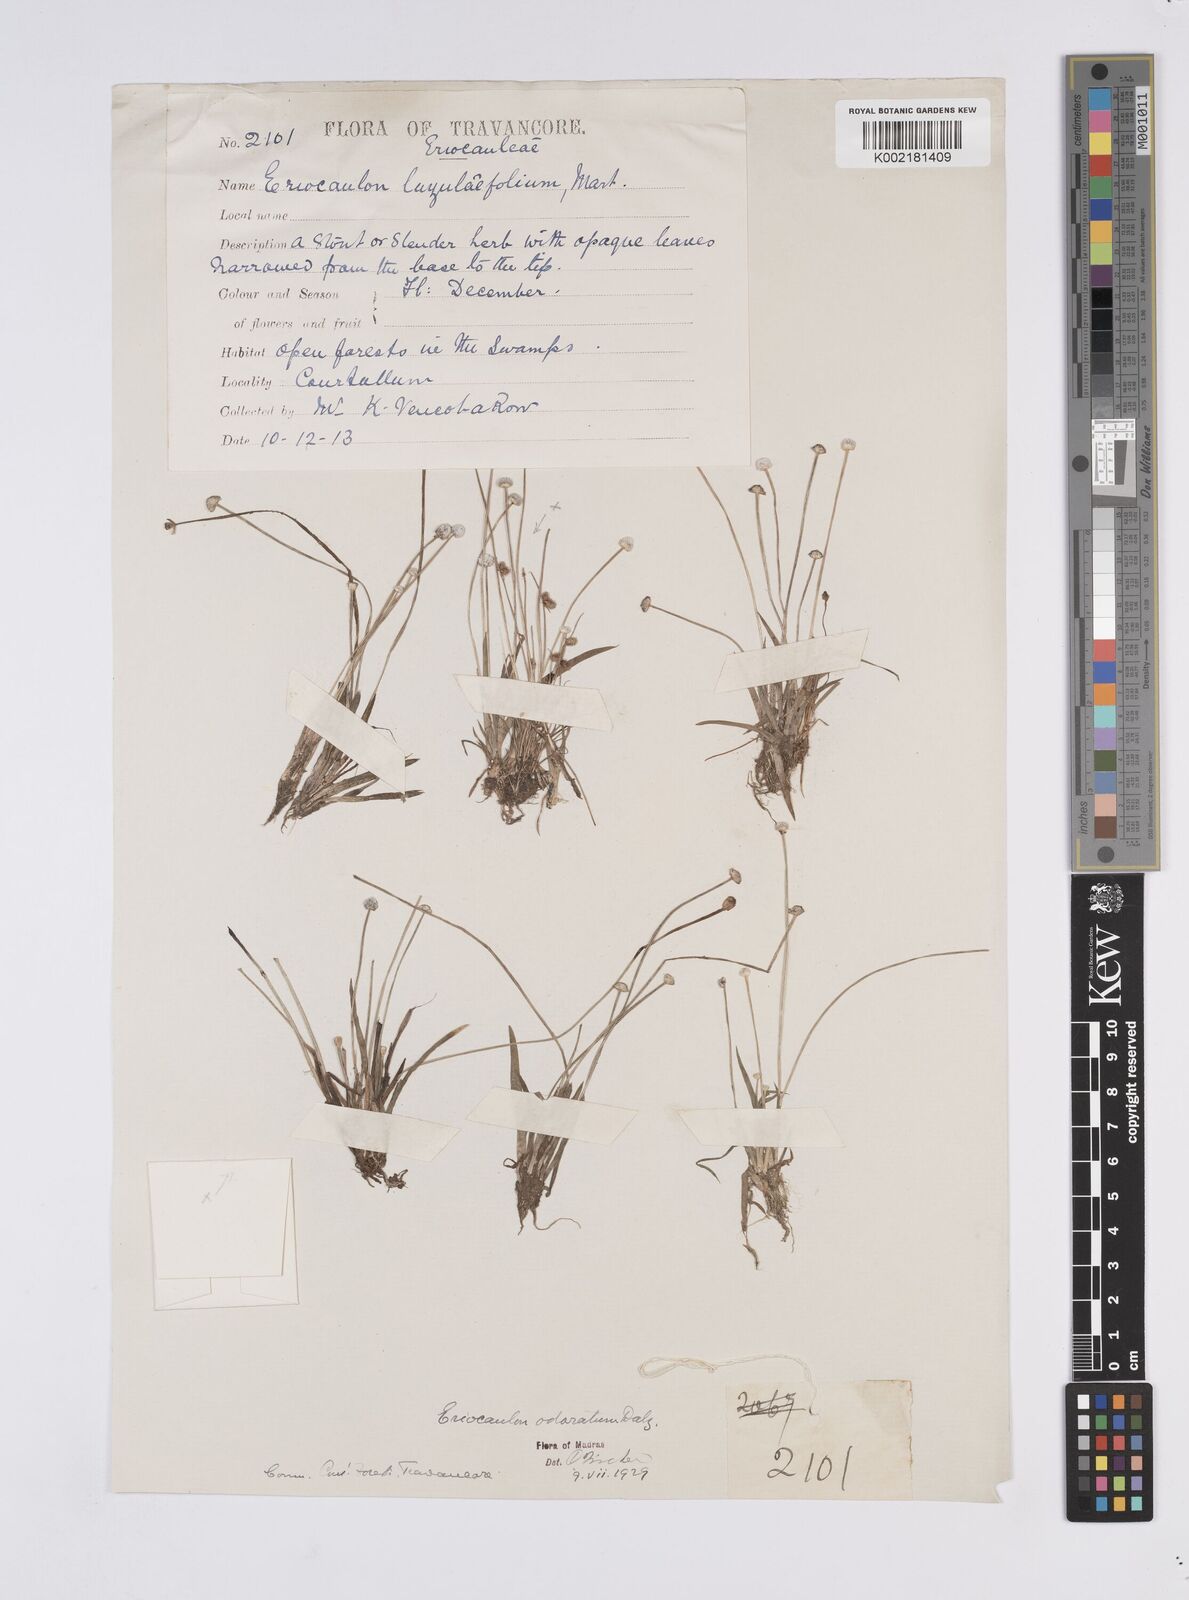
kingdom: Plantae
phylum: Tracheophyta
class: Liliopsida
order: Poales
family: Eriocaulaceae
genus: Eriocaulon
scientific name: Eriocaulon odoratum
